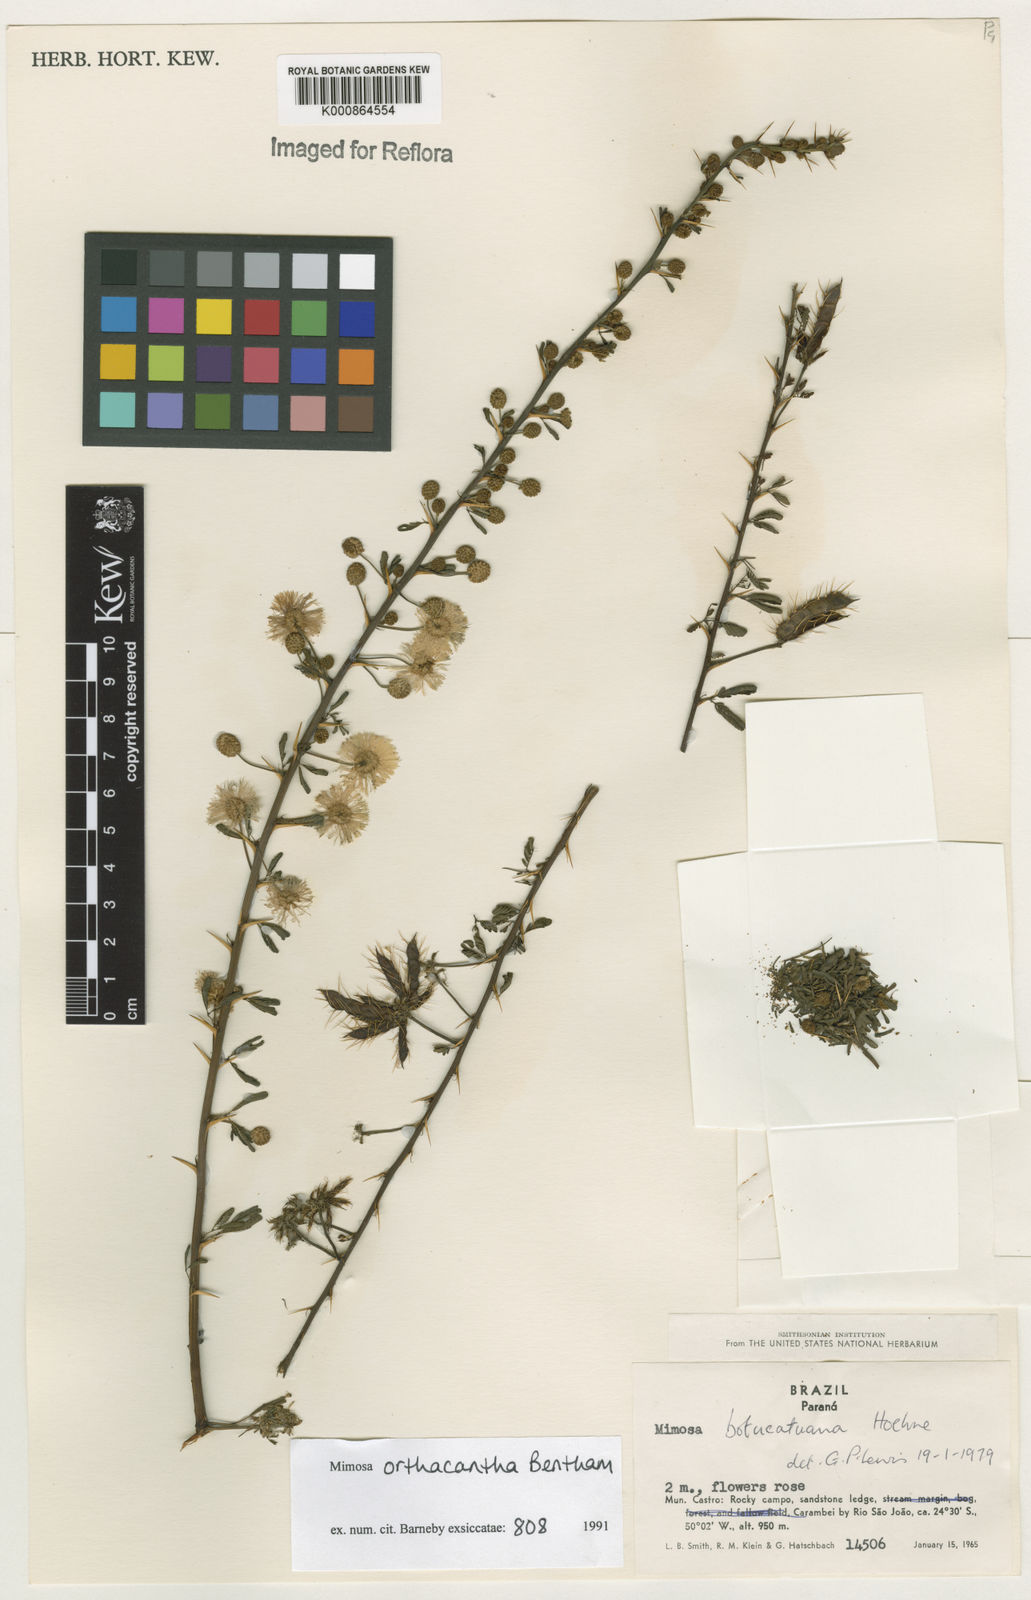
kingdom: Plantae
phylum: Tracheophyta
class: Magnoliopsida
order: Fabales
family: Fabaceae
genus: Mimosa
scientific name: Mimosa orthacantha
